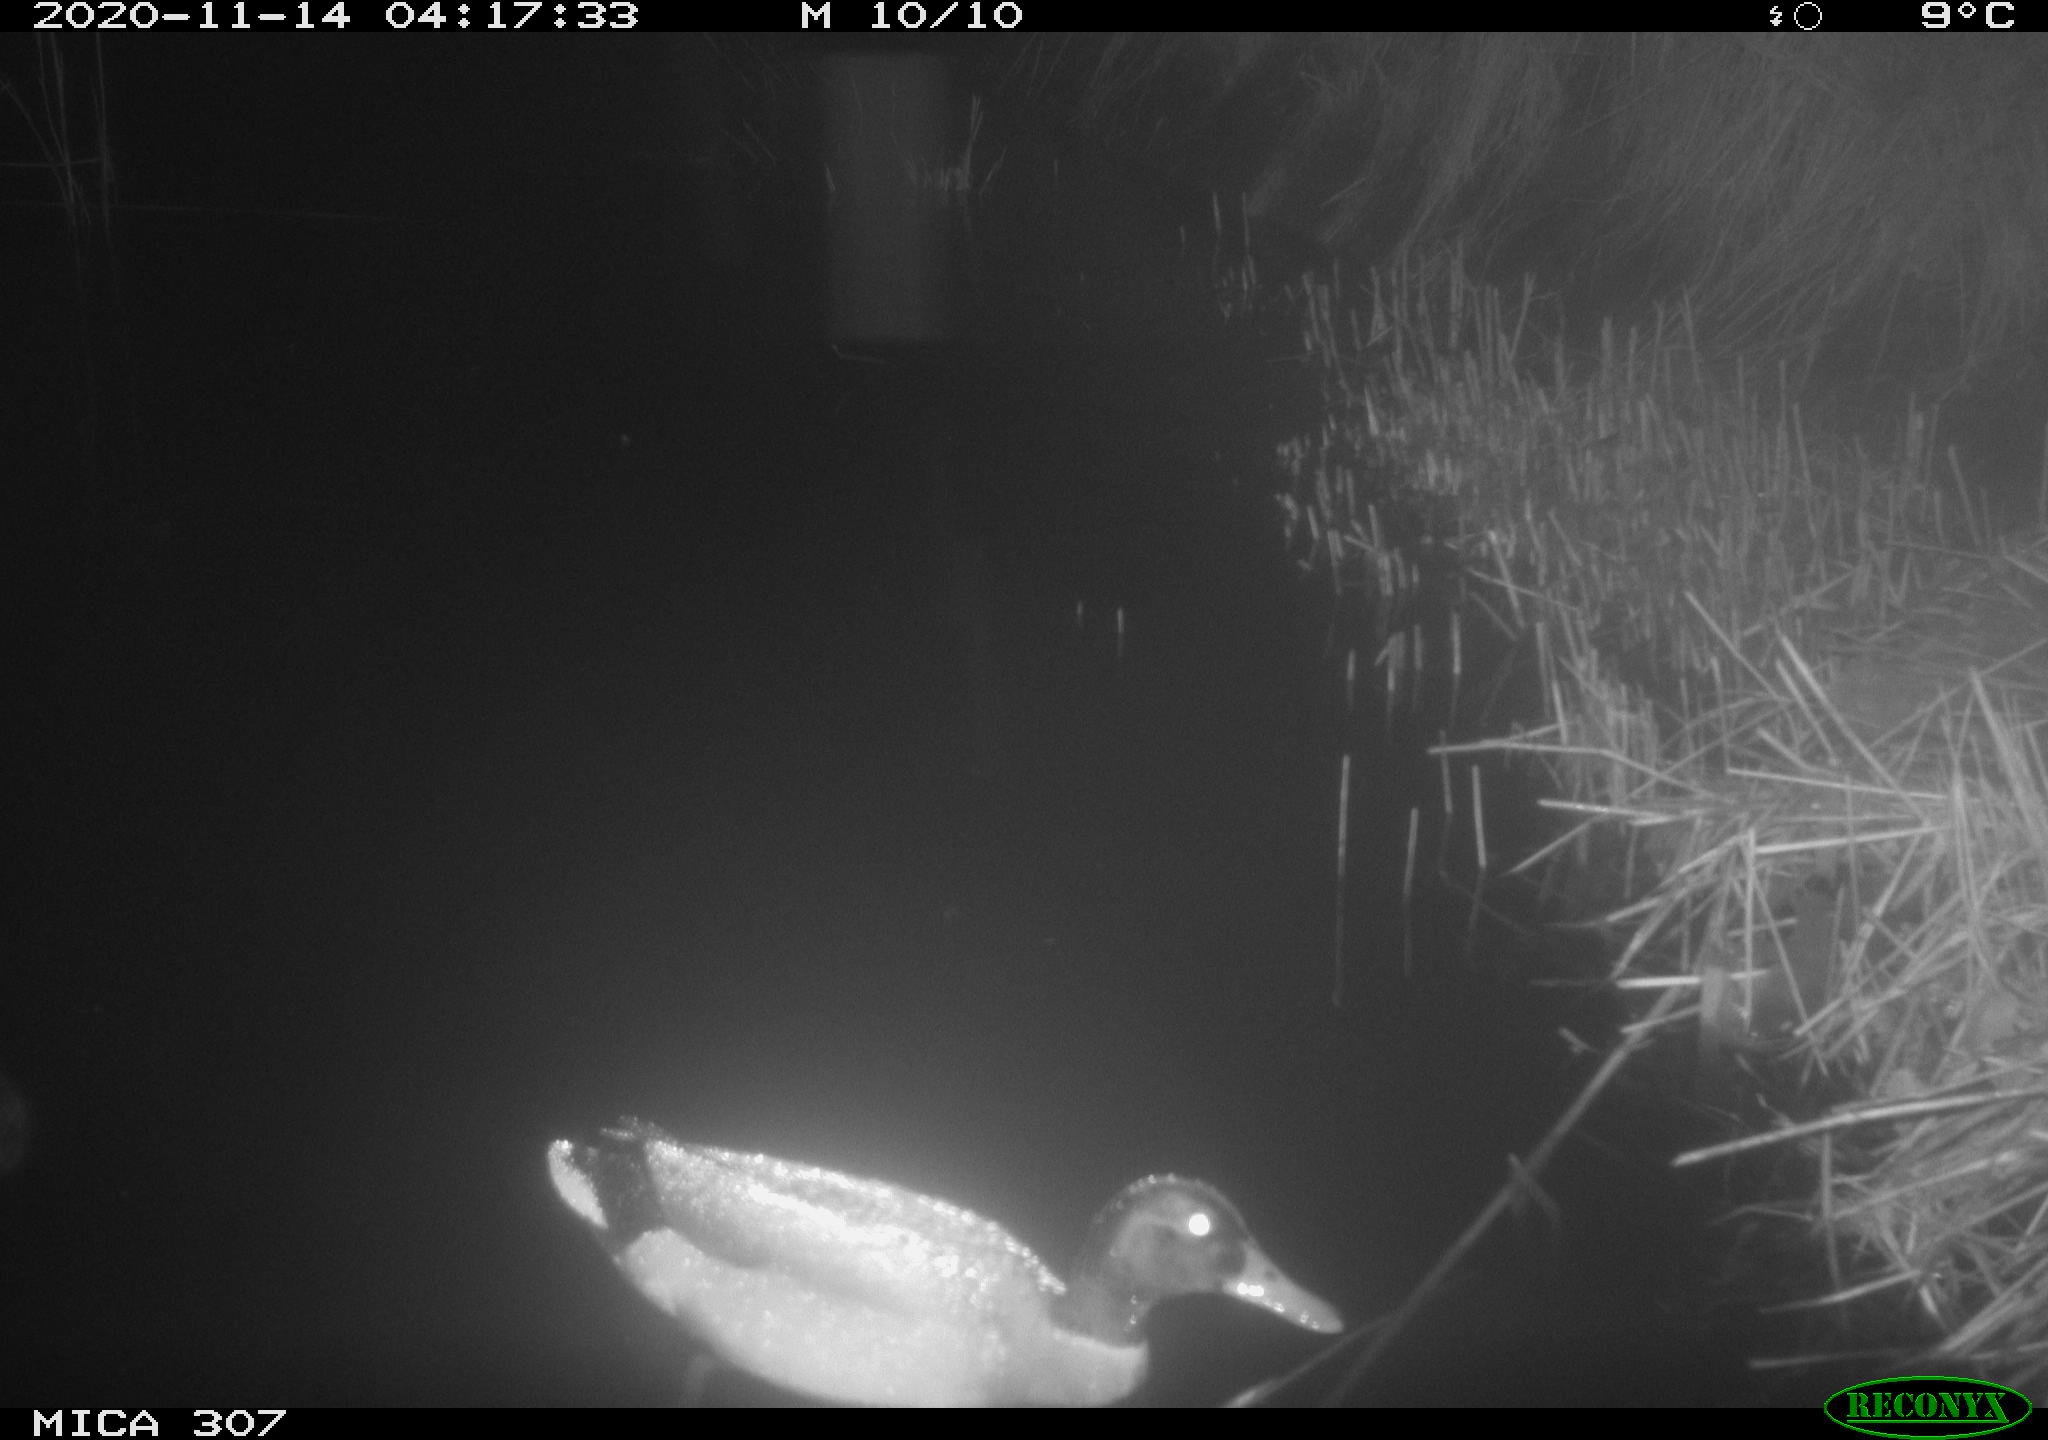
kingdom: Animalia
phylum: Chordata
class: Aves
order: Anseriformes
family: Anatidae
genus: Anas
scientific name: Anas platyrhynchos
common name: Mallard
